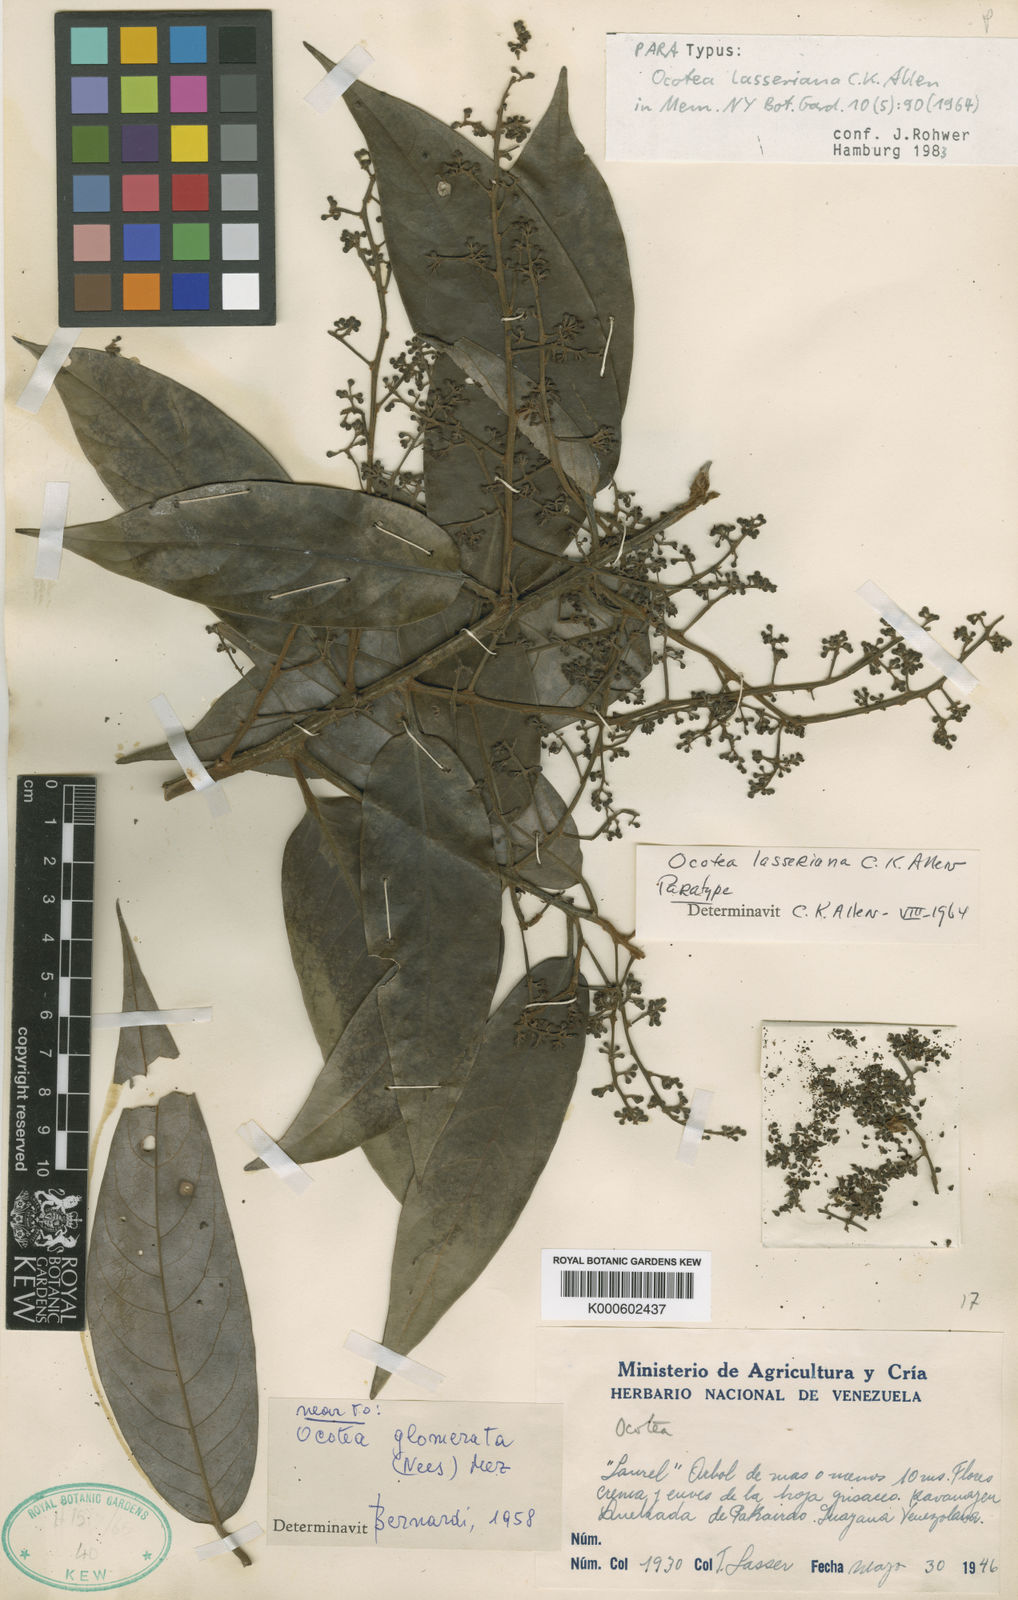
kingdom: Plantae
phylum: Tracheophyta
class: Magnoliopsida
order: Laurales
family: Lauraceae
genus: Ocotea
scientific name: Ocotea leucoxylon
